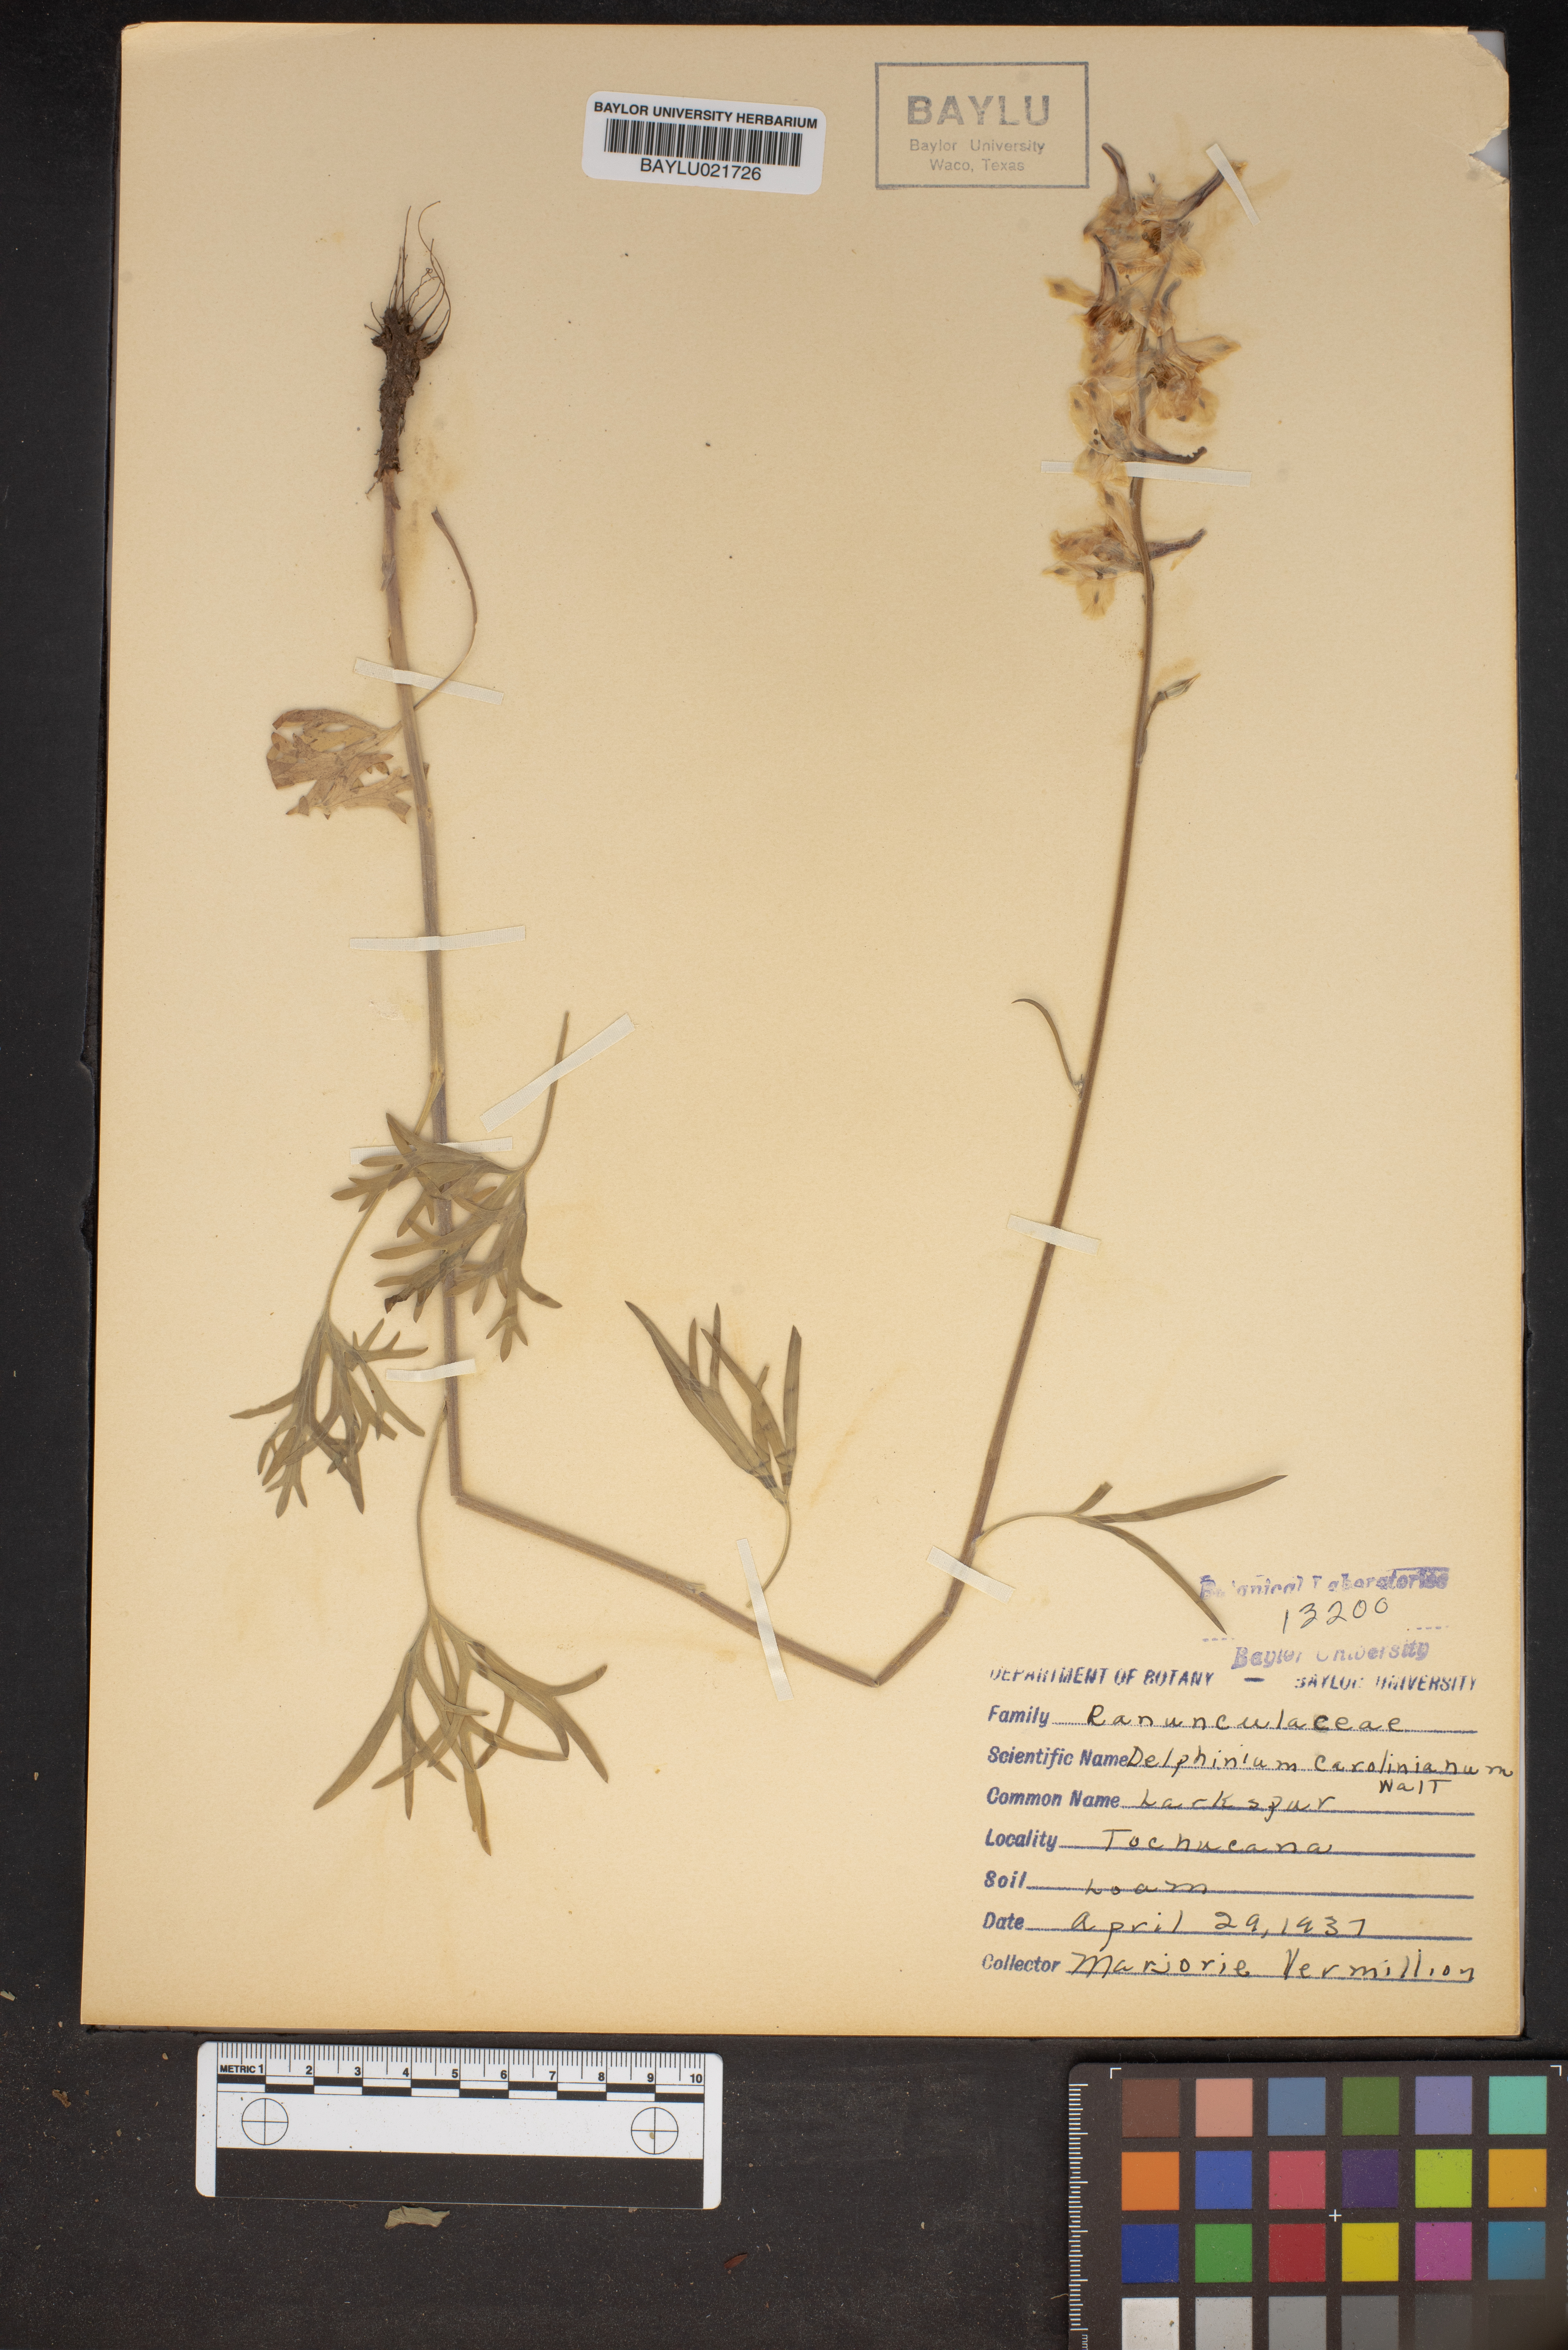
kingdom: Plantae
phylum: Tracheophyta
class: Magnoliopsida
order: Ranunculales
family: Ranunculaceae
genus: Delphinium
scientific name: Delphinium carolinianum
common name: Carolina larkspur
